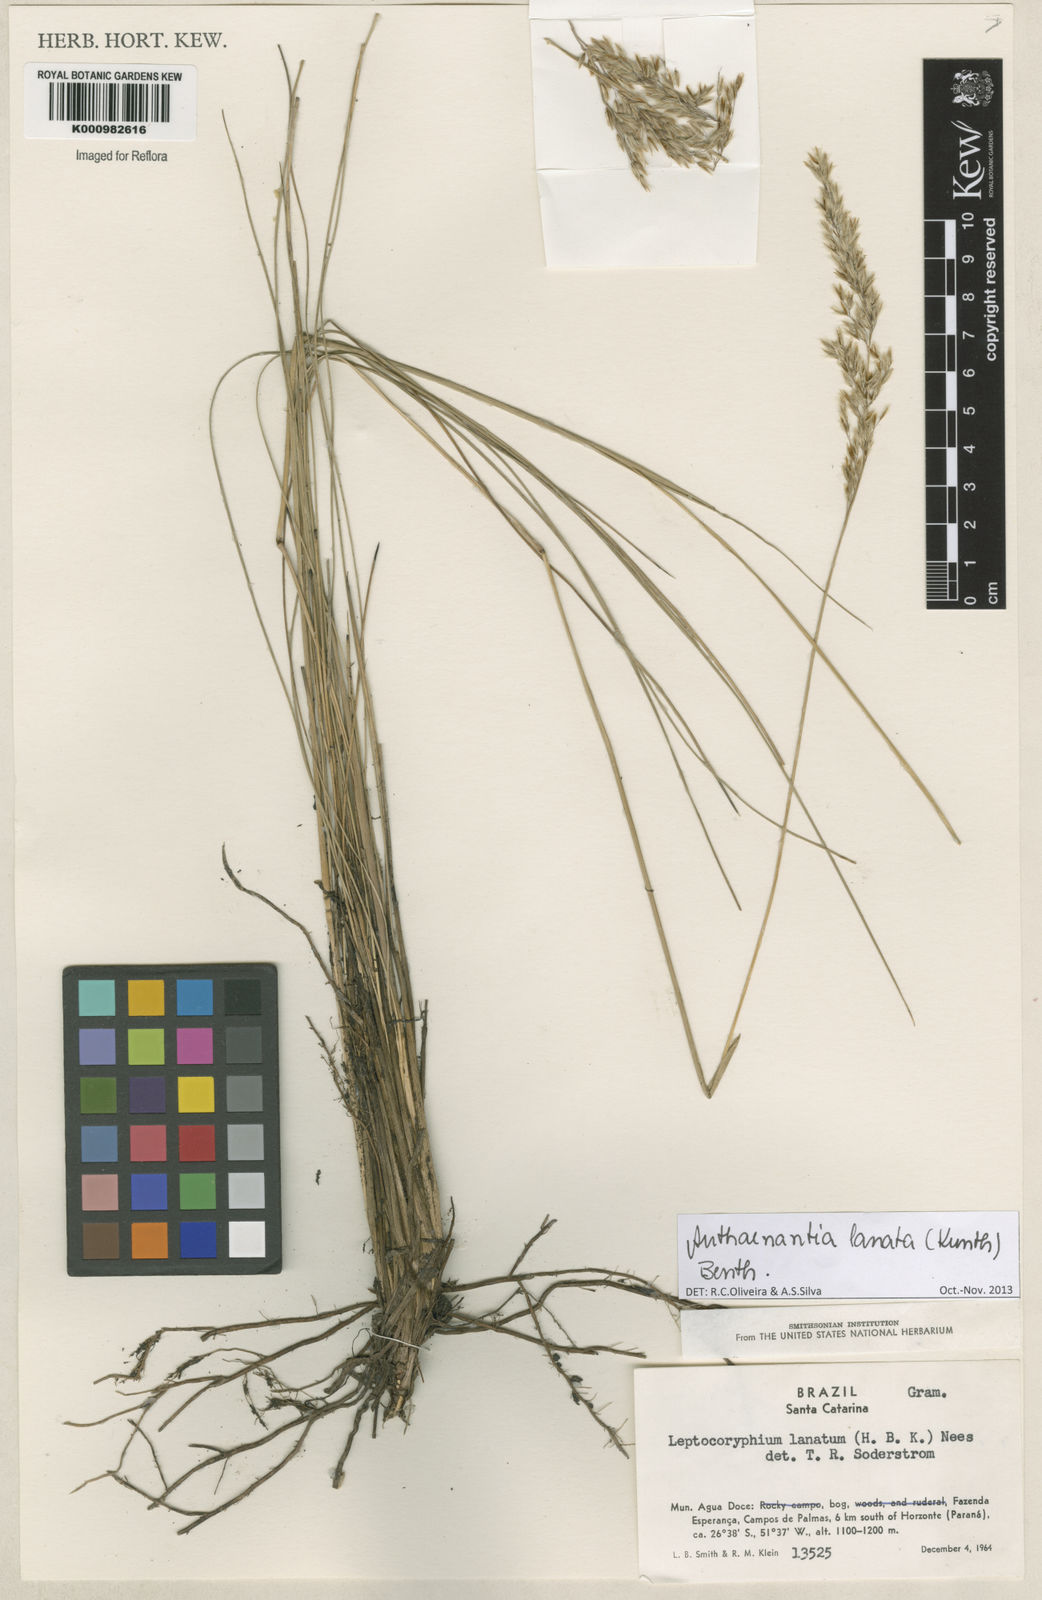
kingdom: Plantae
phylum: Tracheophyta
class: Liliopsida
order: Poales
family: Poaceae
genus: Anthenantia
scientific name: Anthenantia lanata
